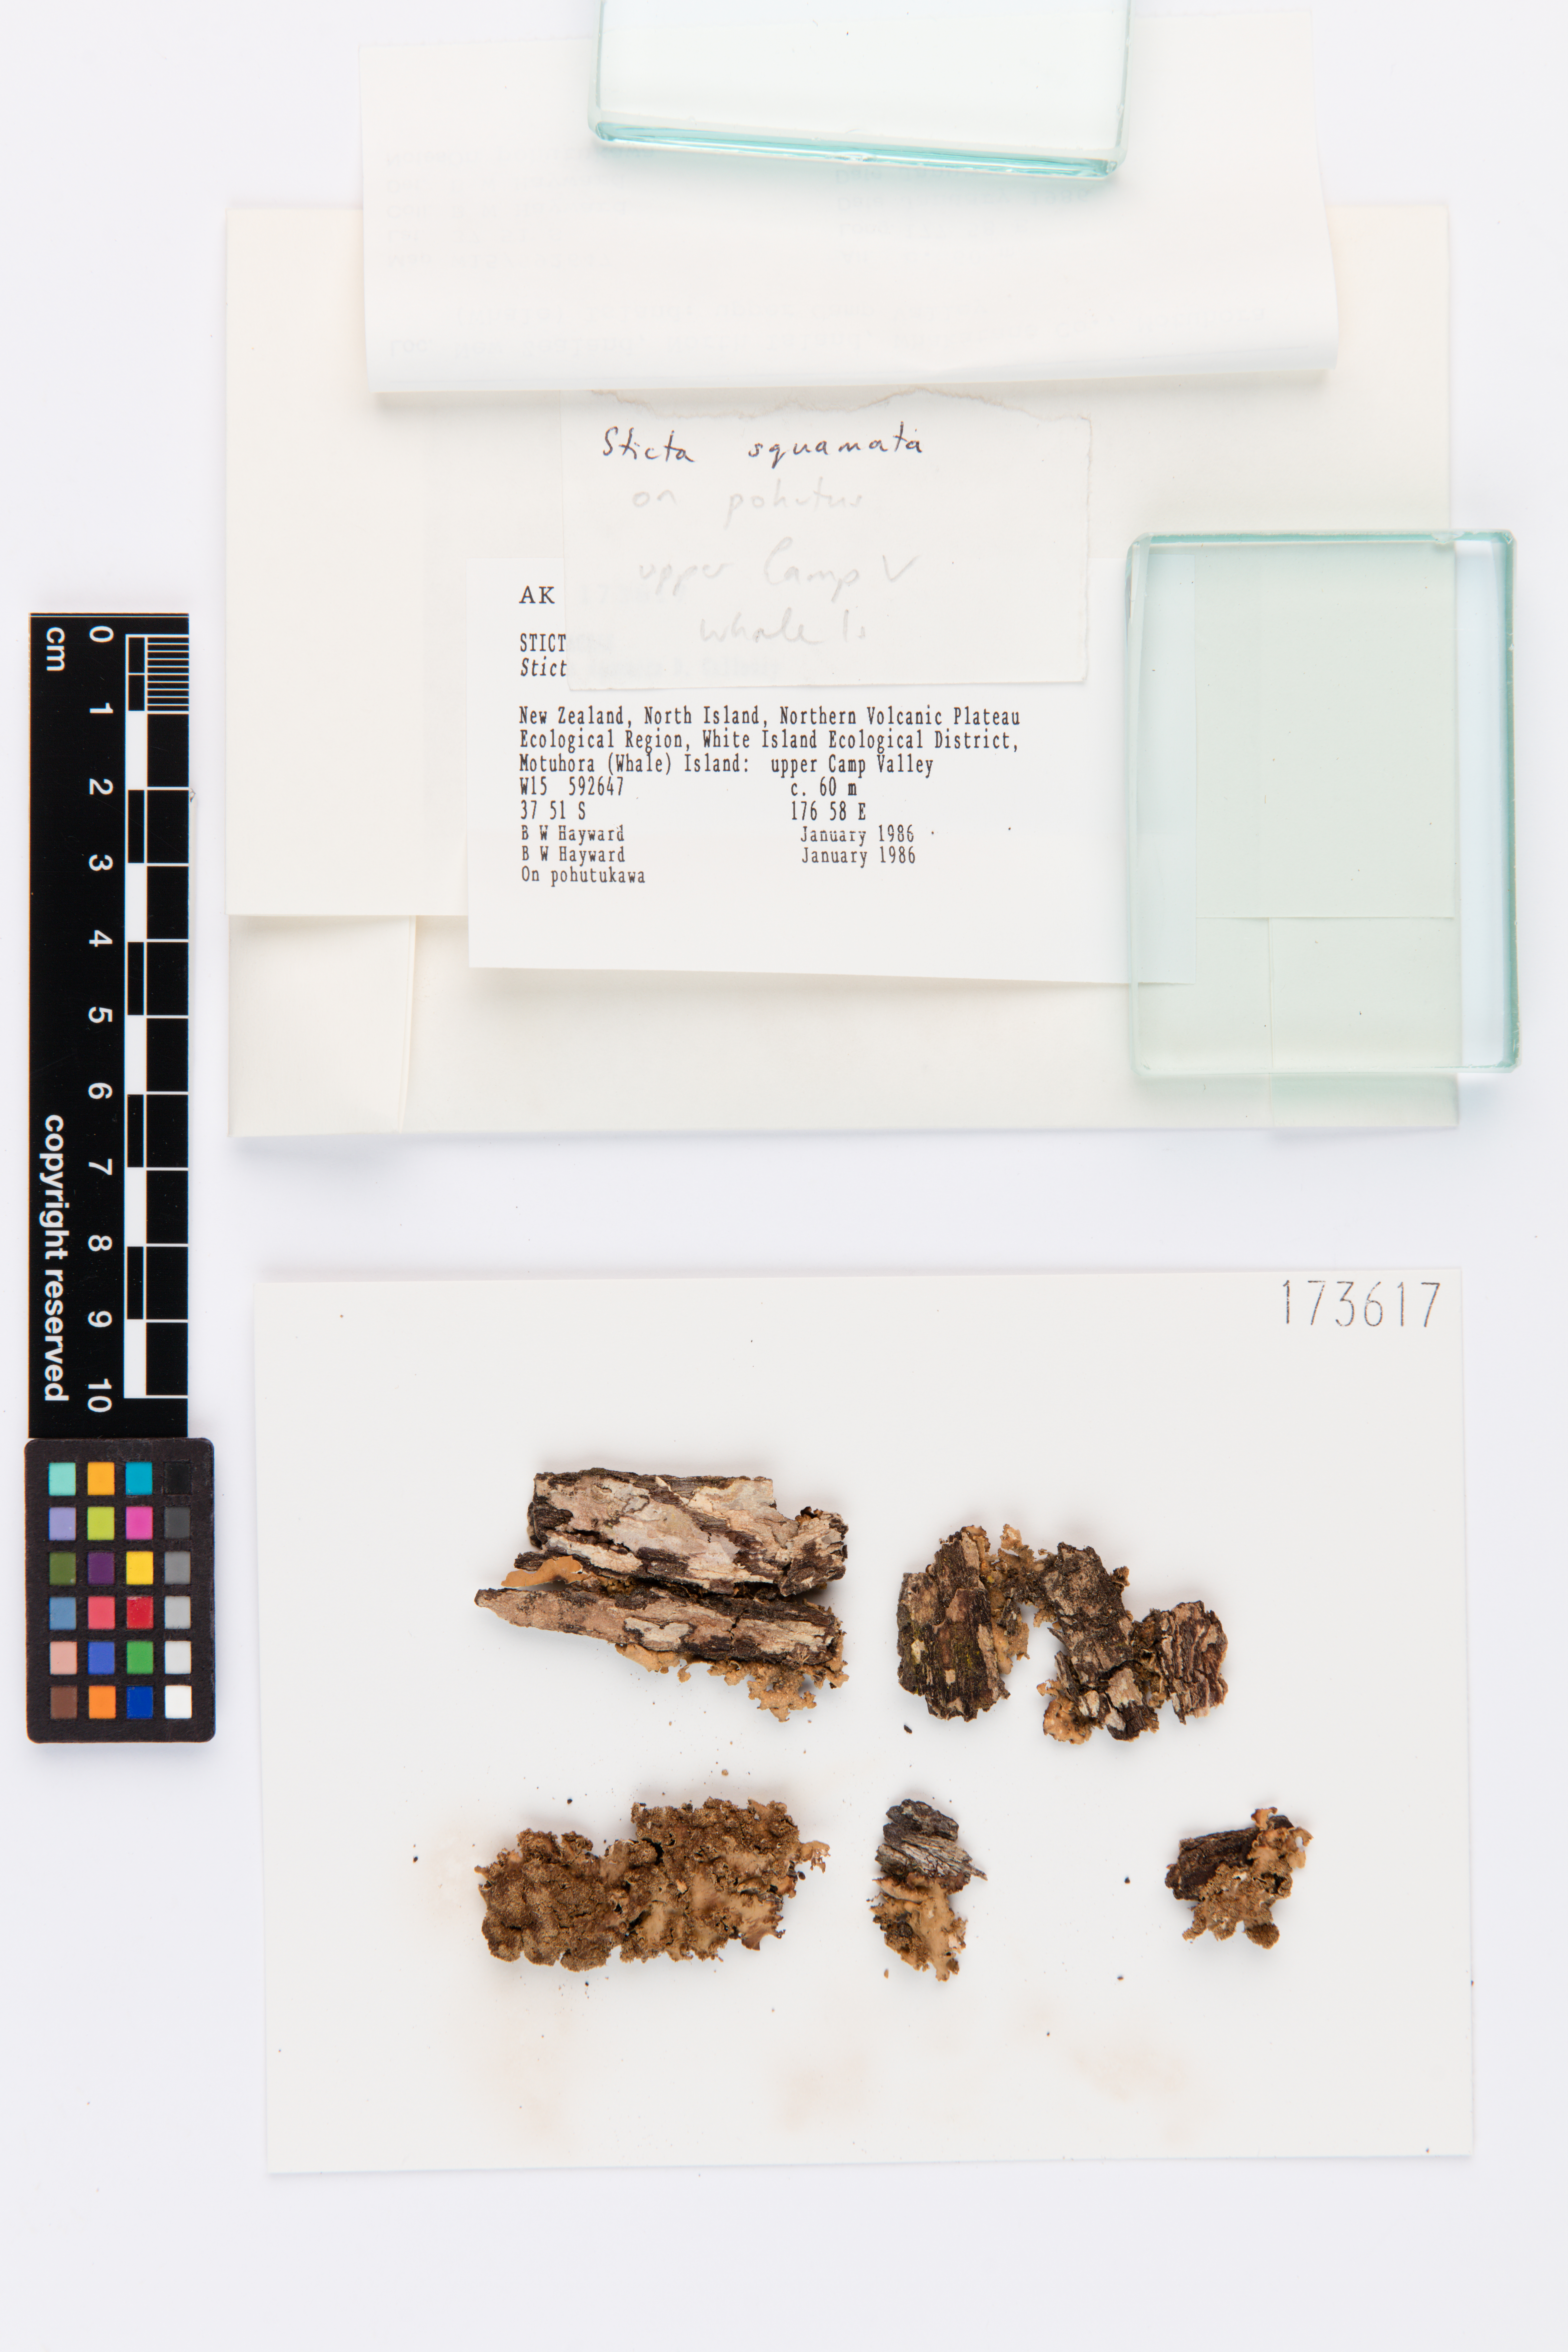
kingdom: Fungi
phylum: Ascomycota
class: Lecanoromycetes
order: Peltigerales
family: Lobariaceae
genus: Sticta
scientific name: Sticta squamata
